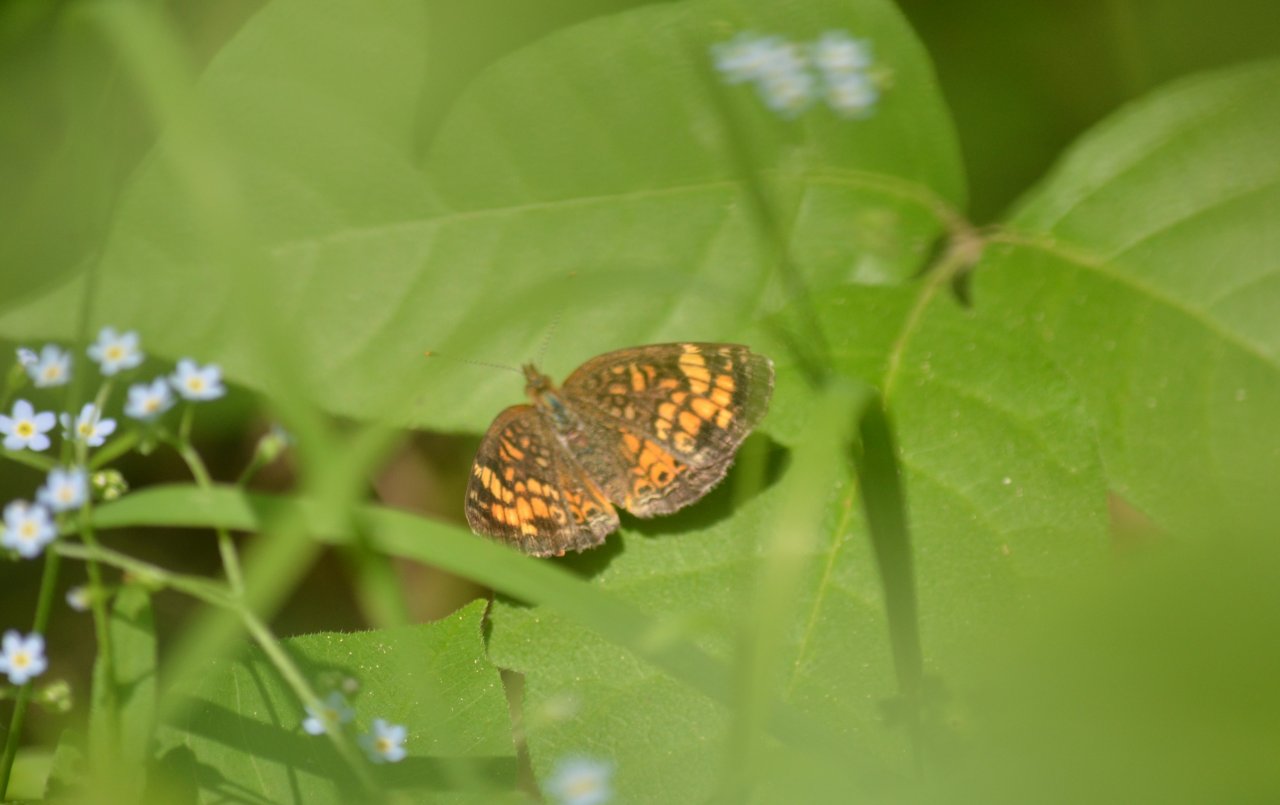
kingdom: Animalia
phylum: Arthropoda
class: Insecta
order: Lepidoptera
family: Nymphalidae
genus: Phyciodes
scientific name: Phyciodes
